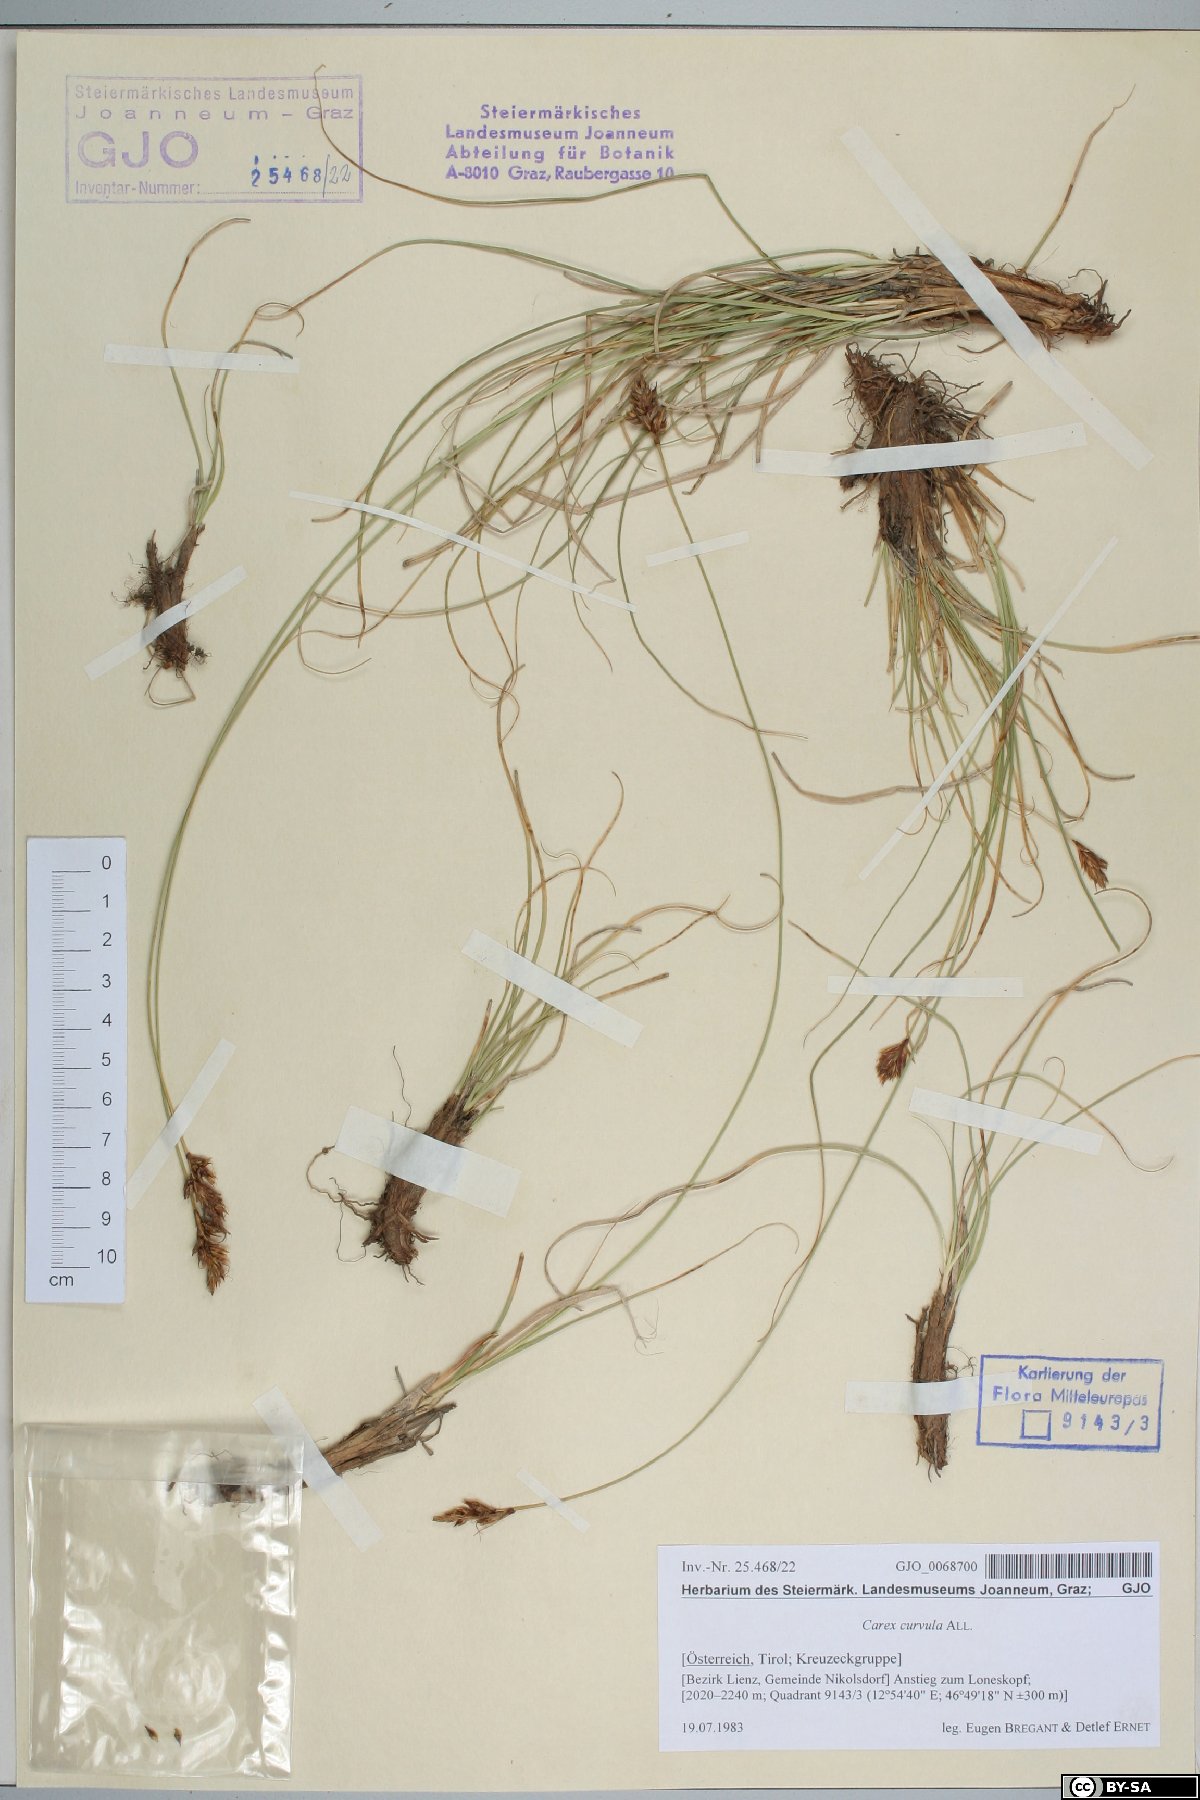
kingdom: Plantae
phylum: Tracheophyta
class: Liliopsida
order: Poales
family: Cyperaceae
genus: Carex
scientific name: Carex curvula
